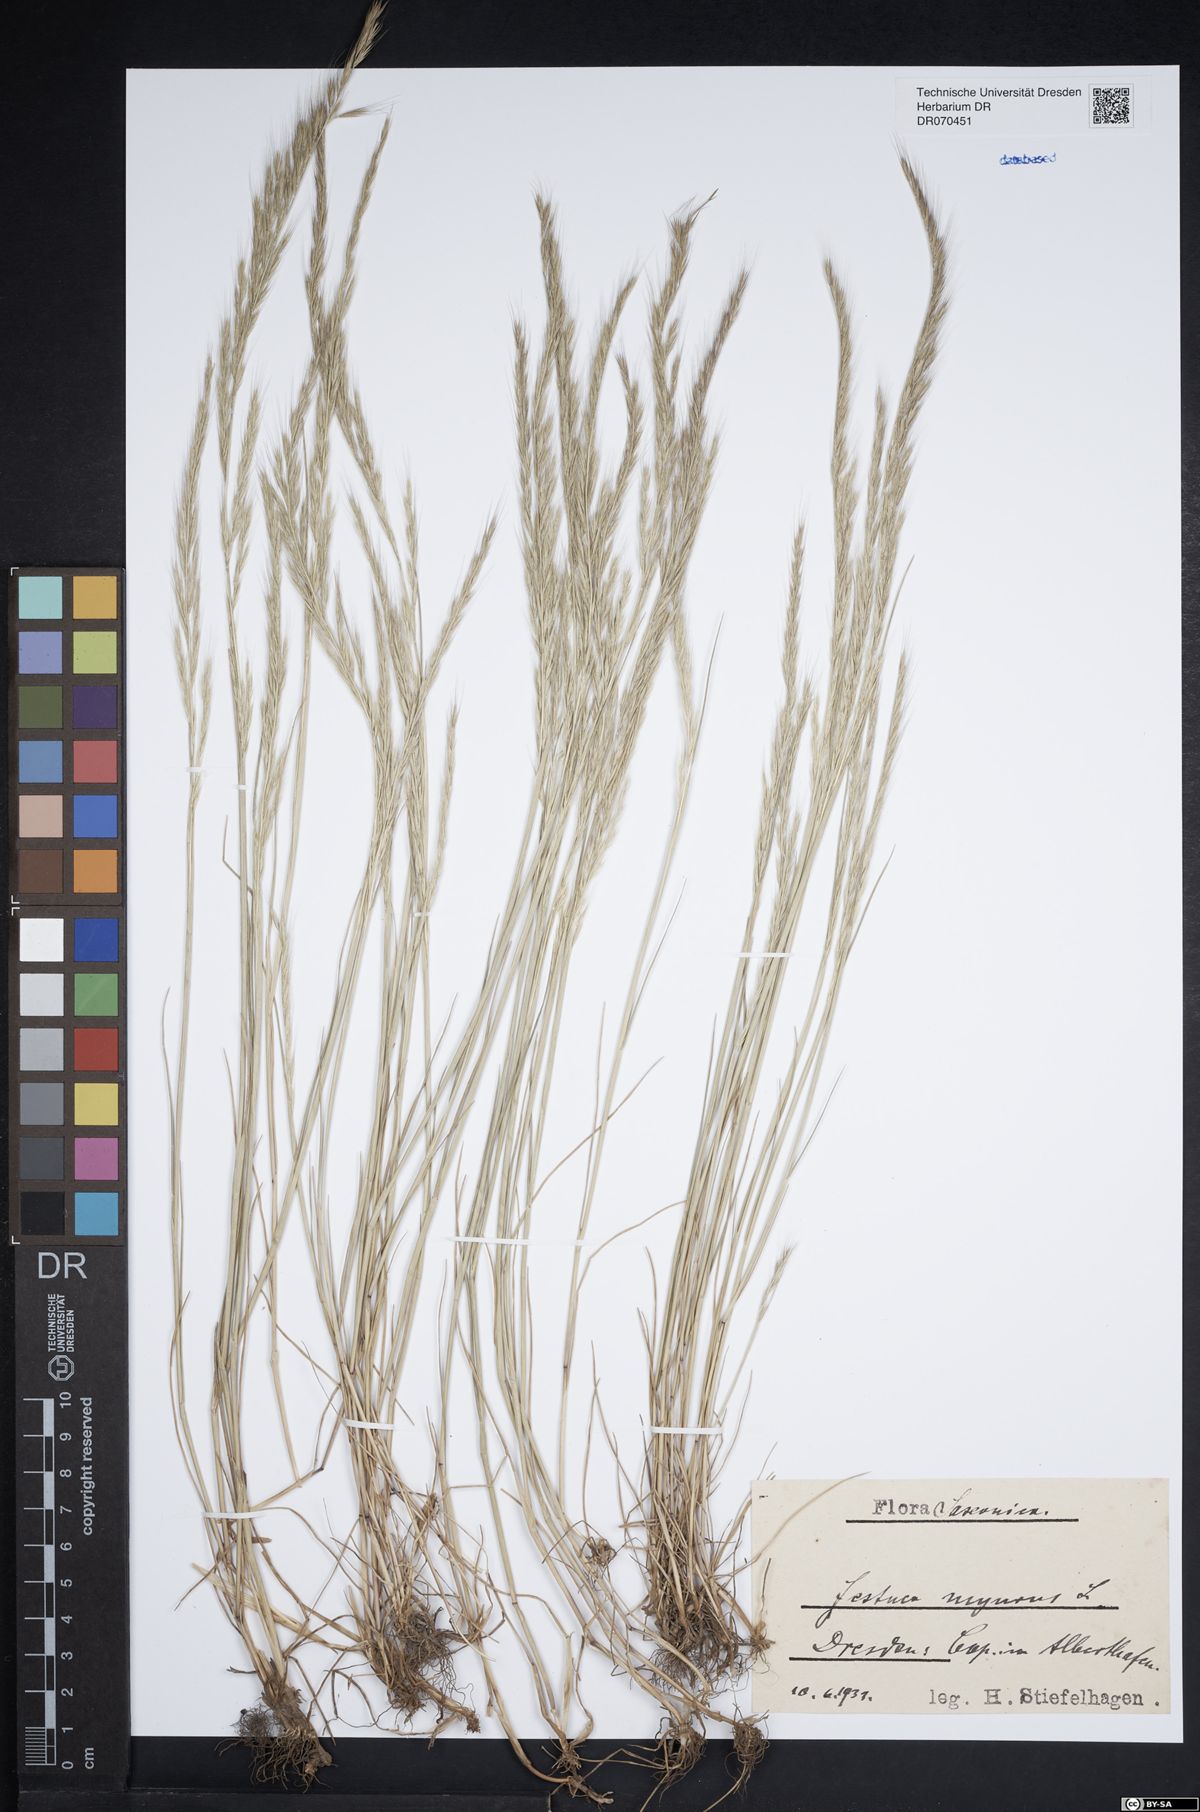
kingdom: Plantae
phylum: Tracheophyta
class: Liliopsida
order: Poales
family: Poaceae
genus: Festuca
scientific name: Festuca myuros
